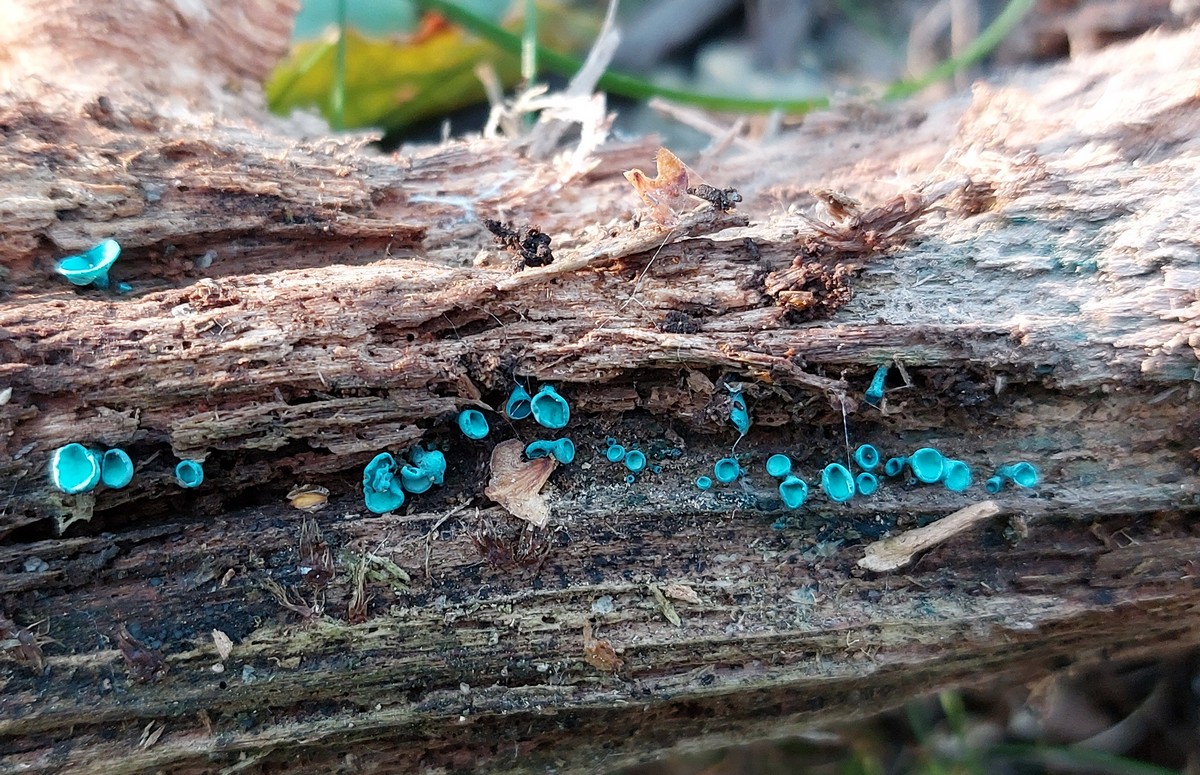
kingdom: Fungi
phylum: Ascomycota
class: Leotiomycetes
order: Helotiales
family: Chlorociboriaceae
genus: Chlorociboria
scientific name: Chlorociboria aeruginascens
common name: almindelig grønskive
